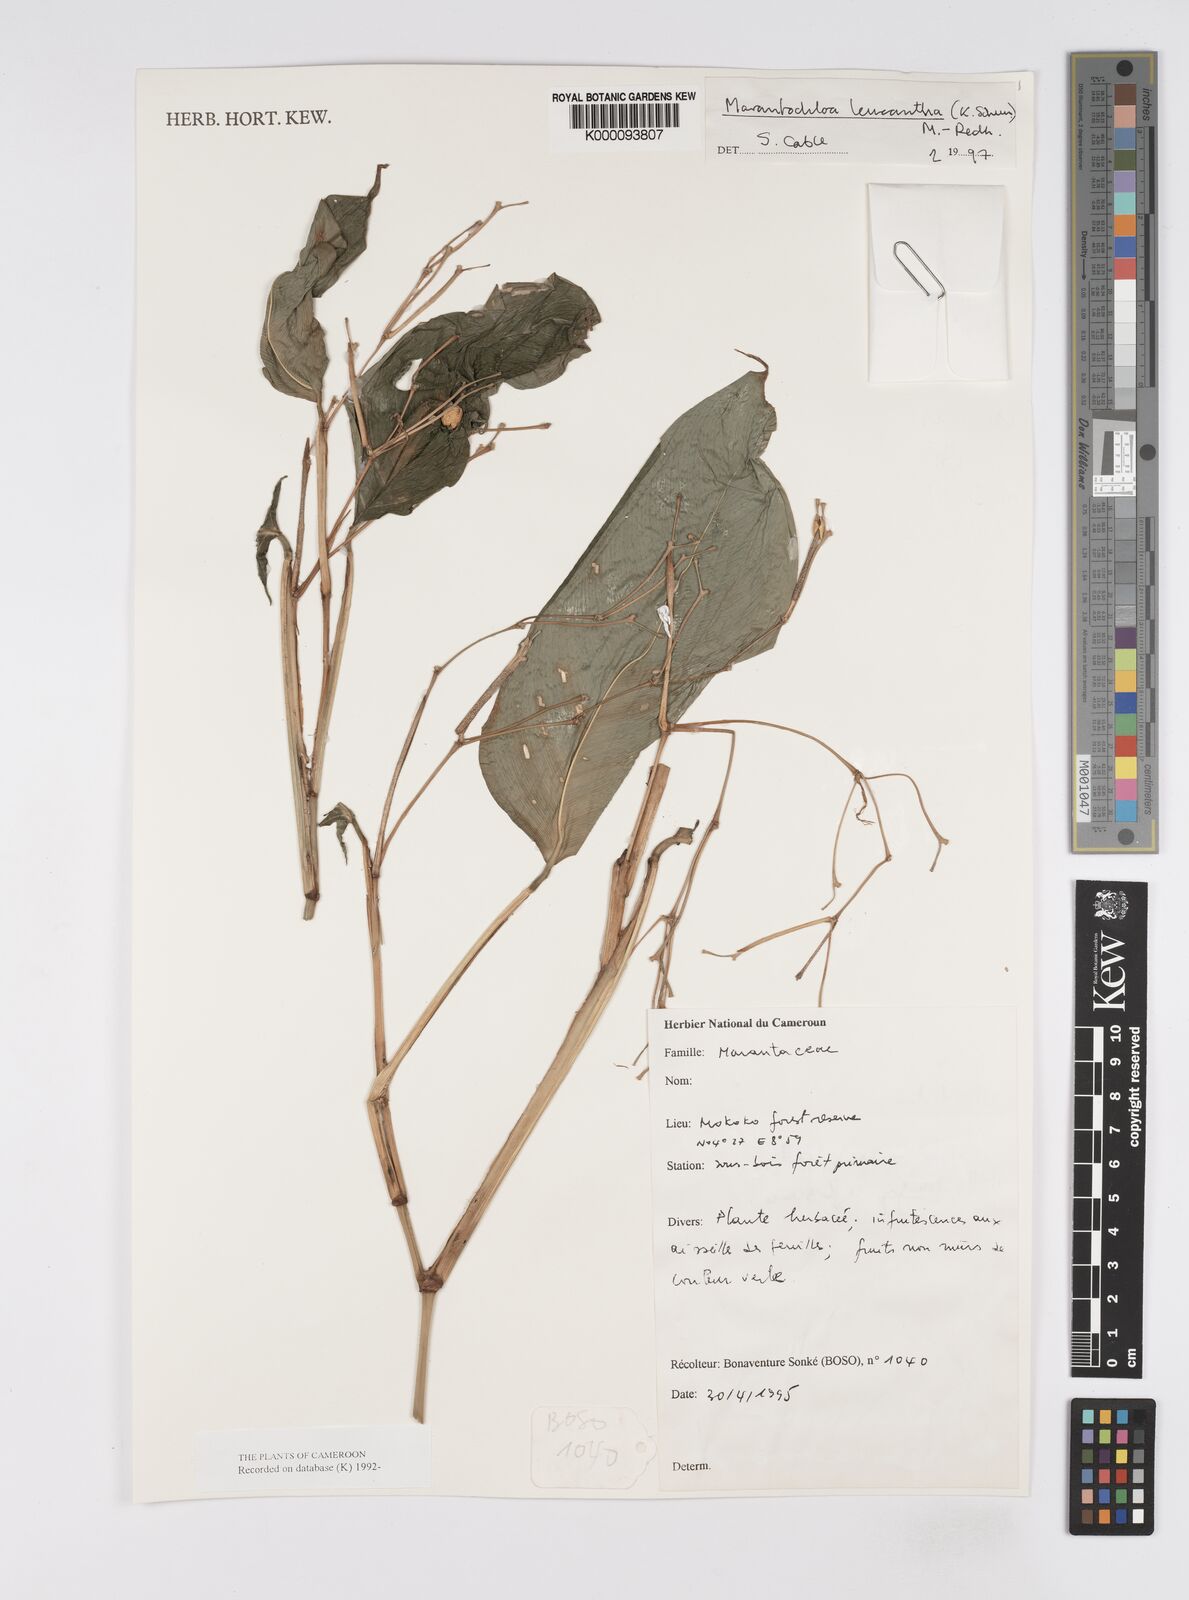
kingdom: Plantae
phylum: Tracheophyta
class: Liliopsida
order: Zingiberales
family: Marantaceae
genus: Marantochloa
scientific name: Marantochloa leucantha
